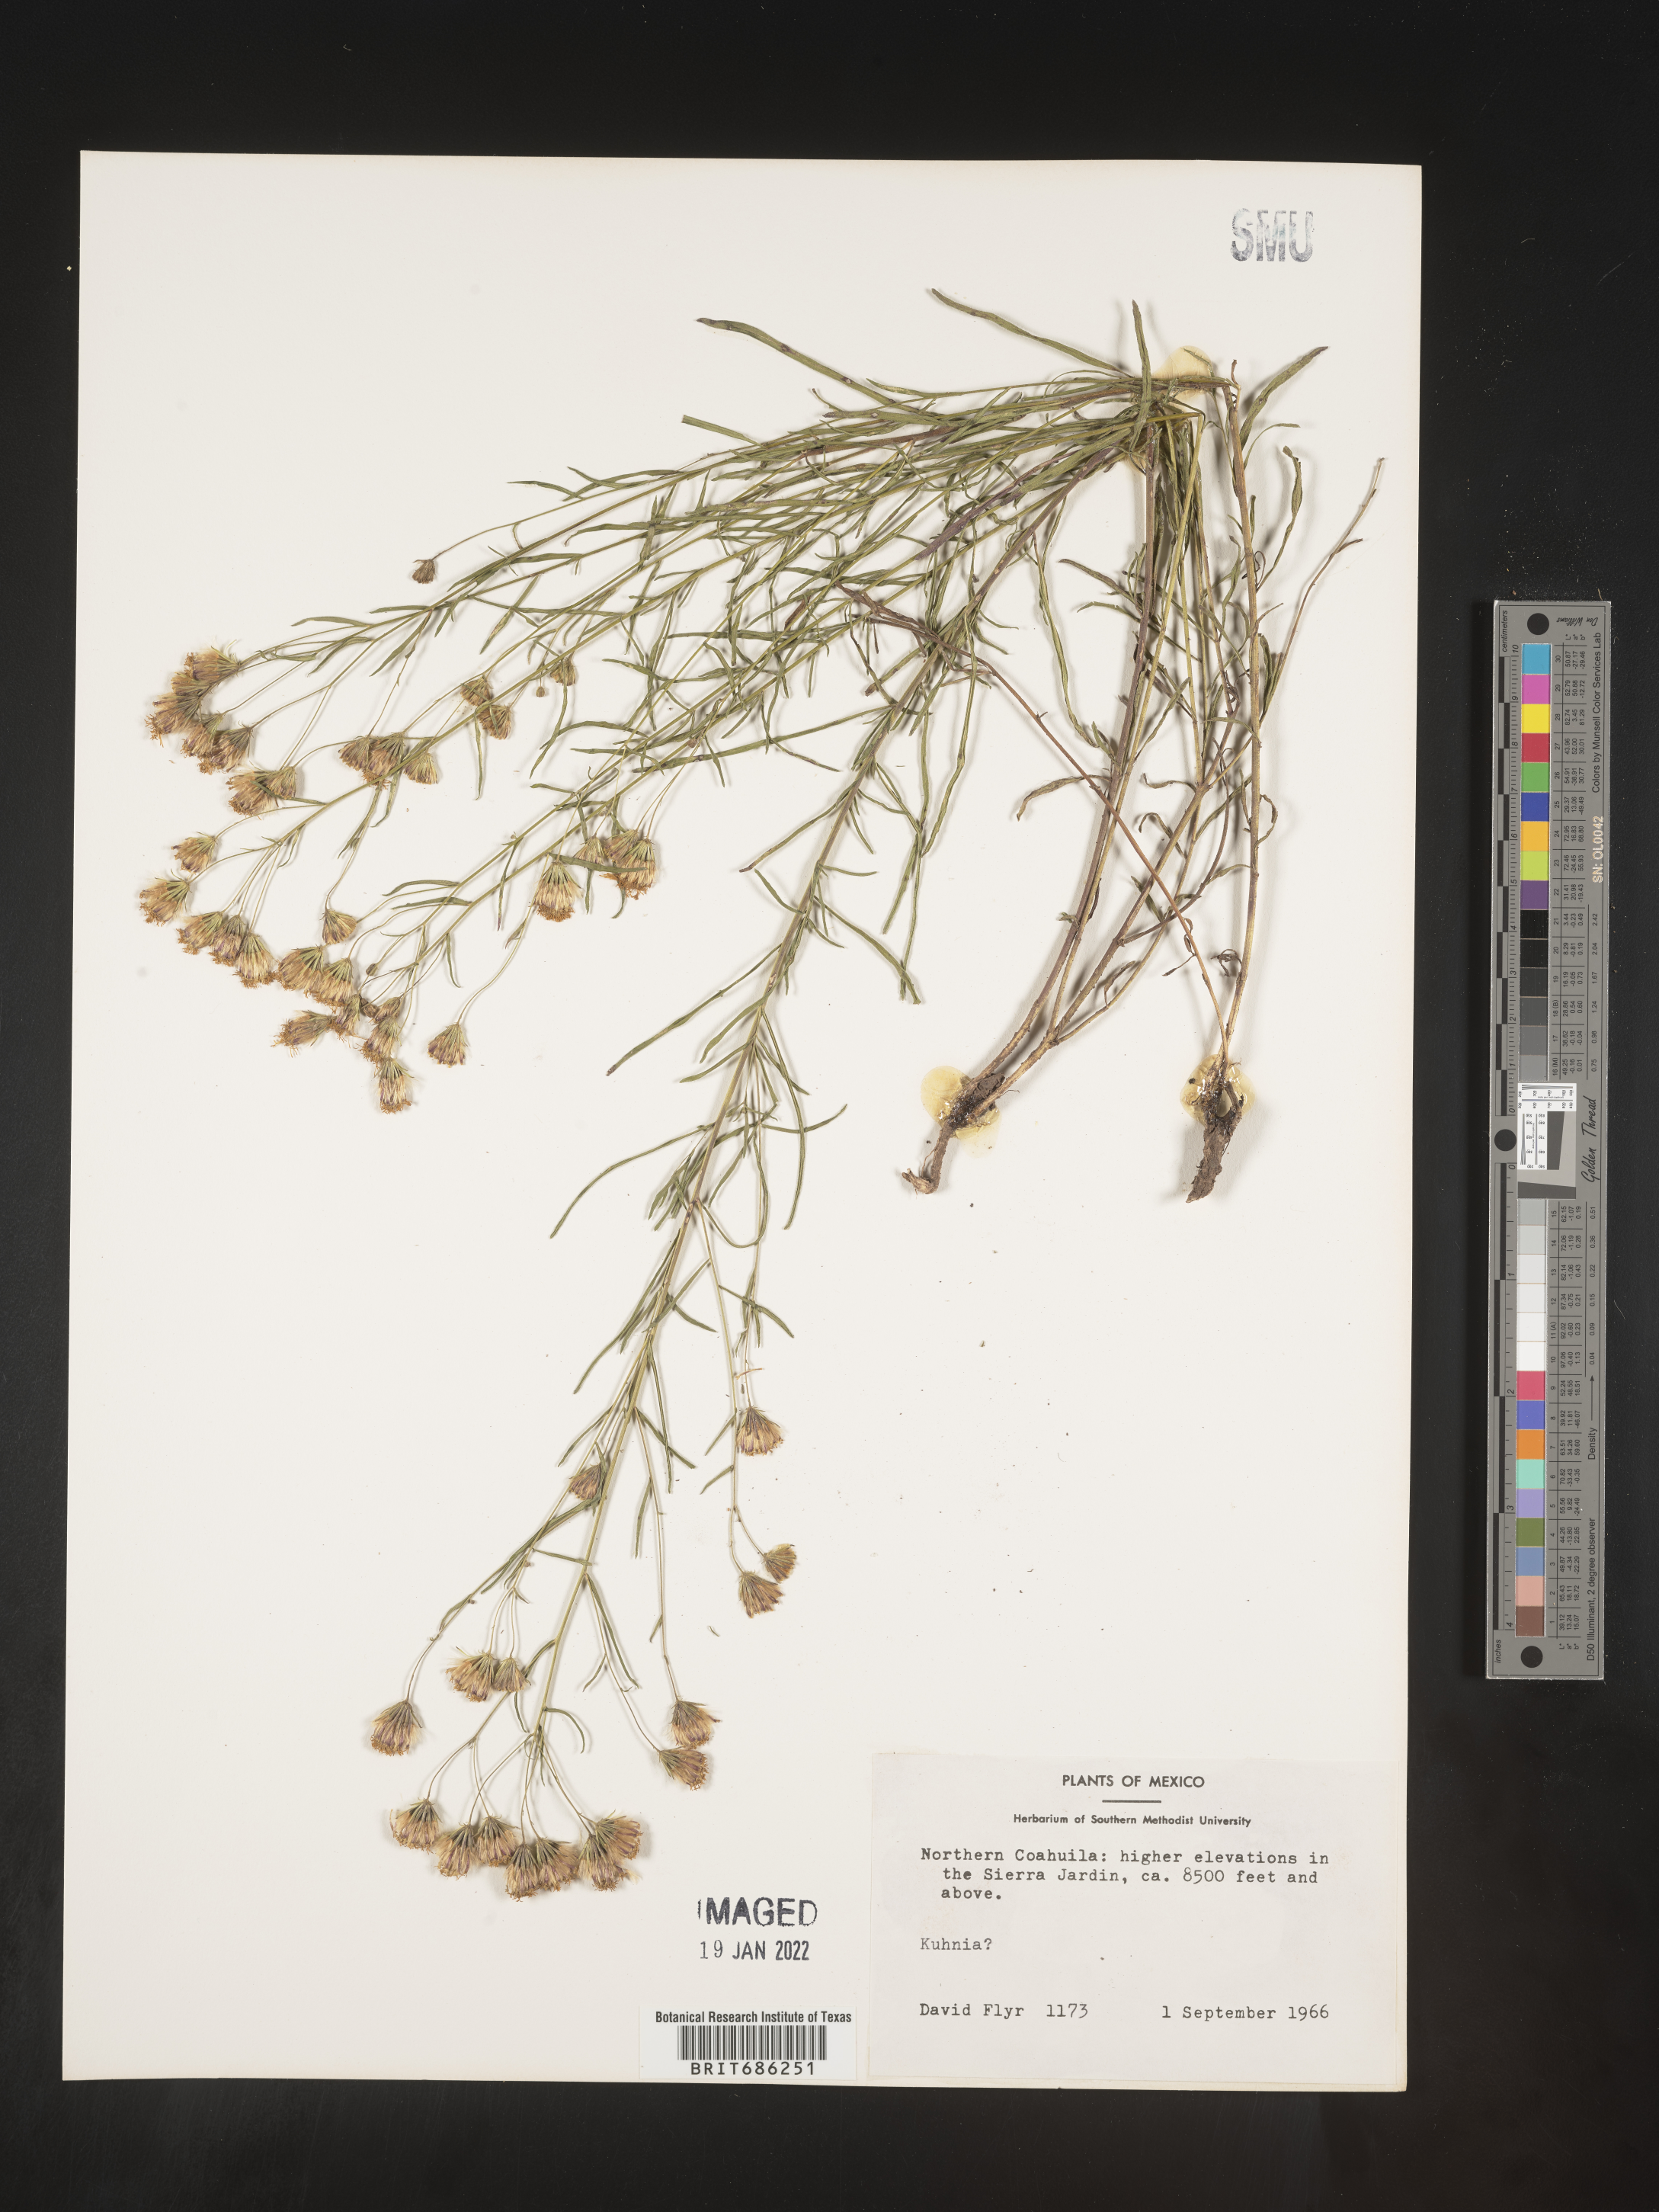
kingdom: Plantae
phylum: Tracheophyta
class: Magnoliopsida
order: Asterales
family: Asteraceae
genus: Brickellia
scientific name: Brickellia
